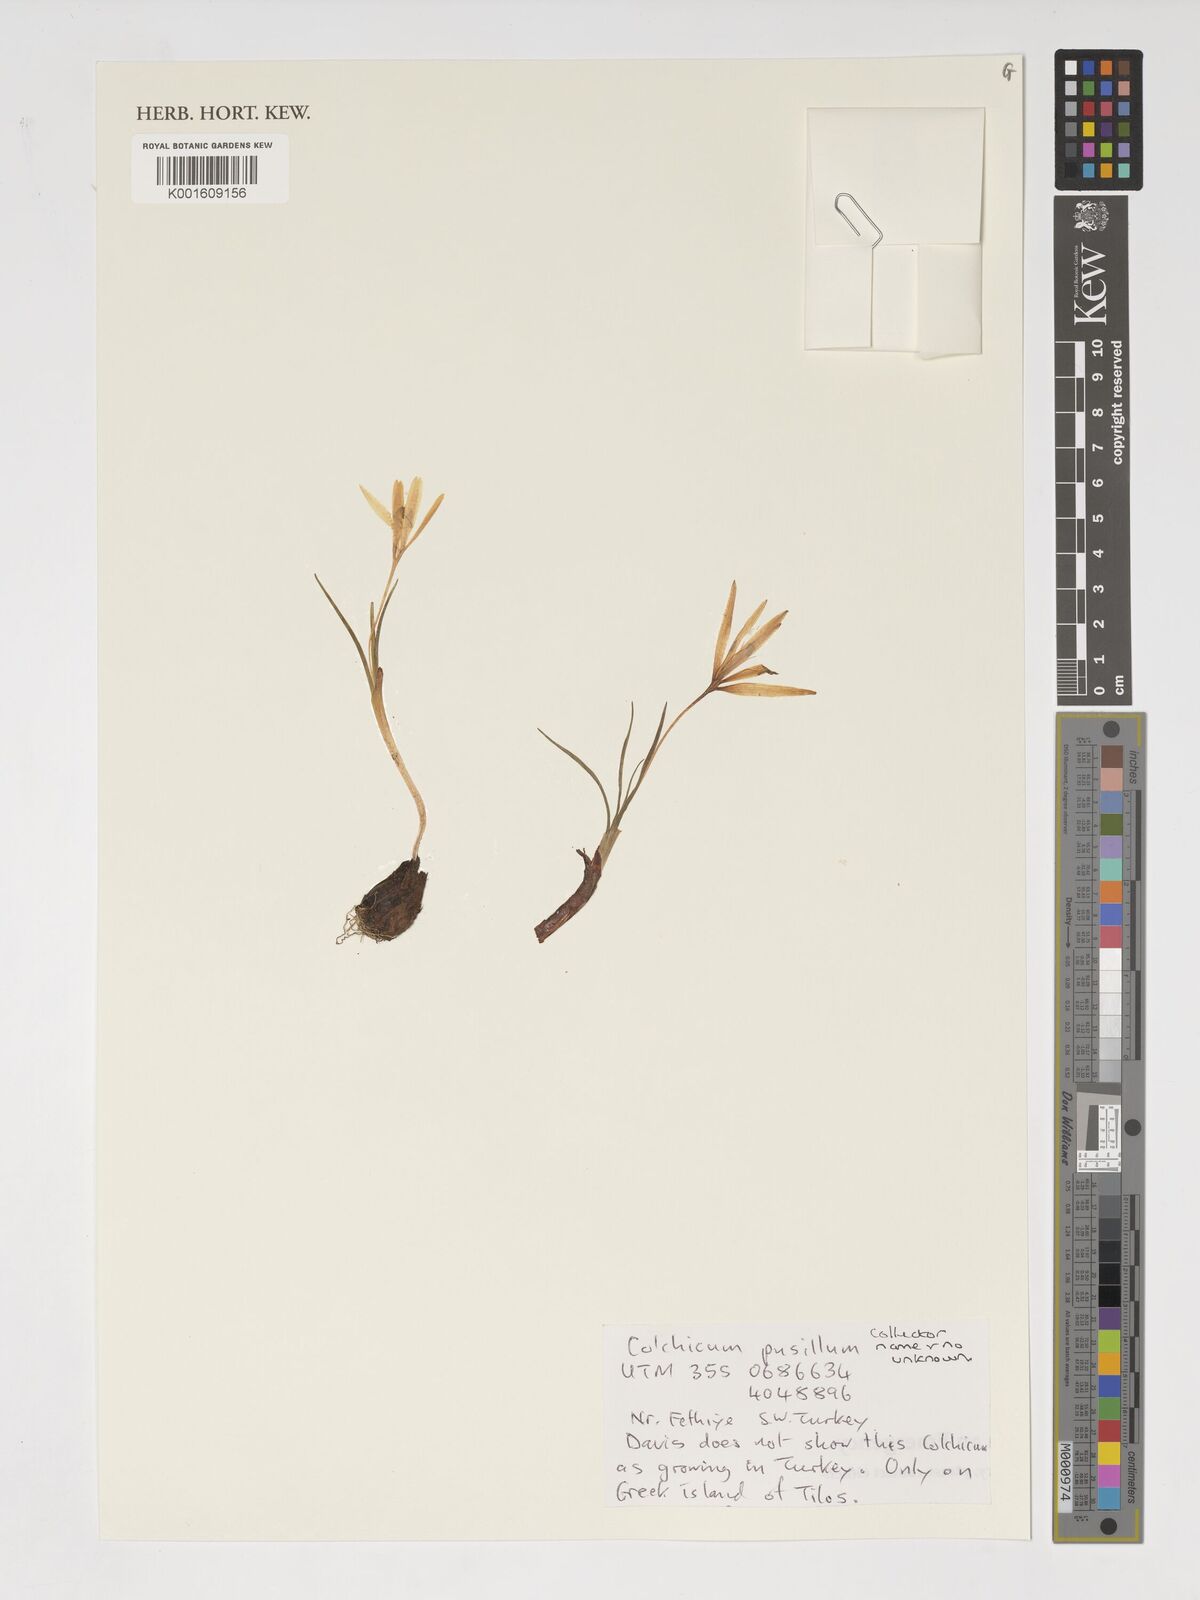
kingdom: Plantae
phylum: Tracheophyta
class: Liliopsida
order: Liliales
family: Colchicaceae
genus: Colchicum
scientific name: Colchicum pusillum
